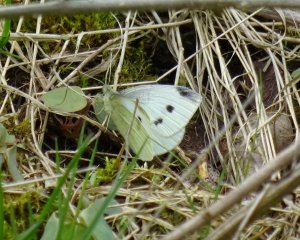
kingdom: Animalia
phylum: Arthropoda
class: Insecta
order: Lepidoptera
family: Pieridae
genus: Pieris
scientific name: Pieris rapae
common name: Cabbage White
